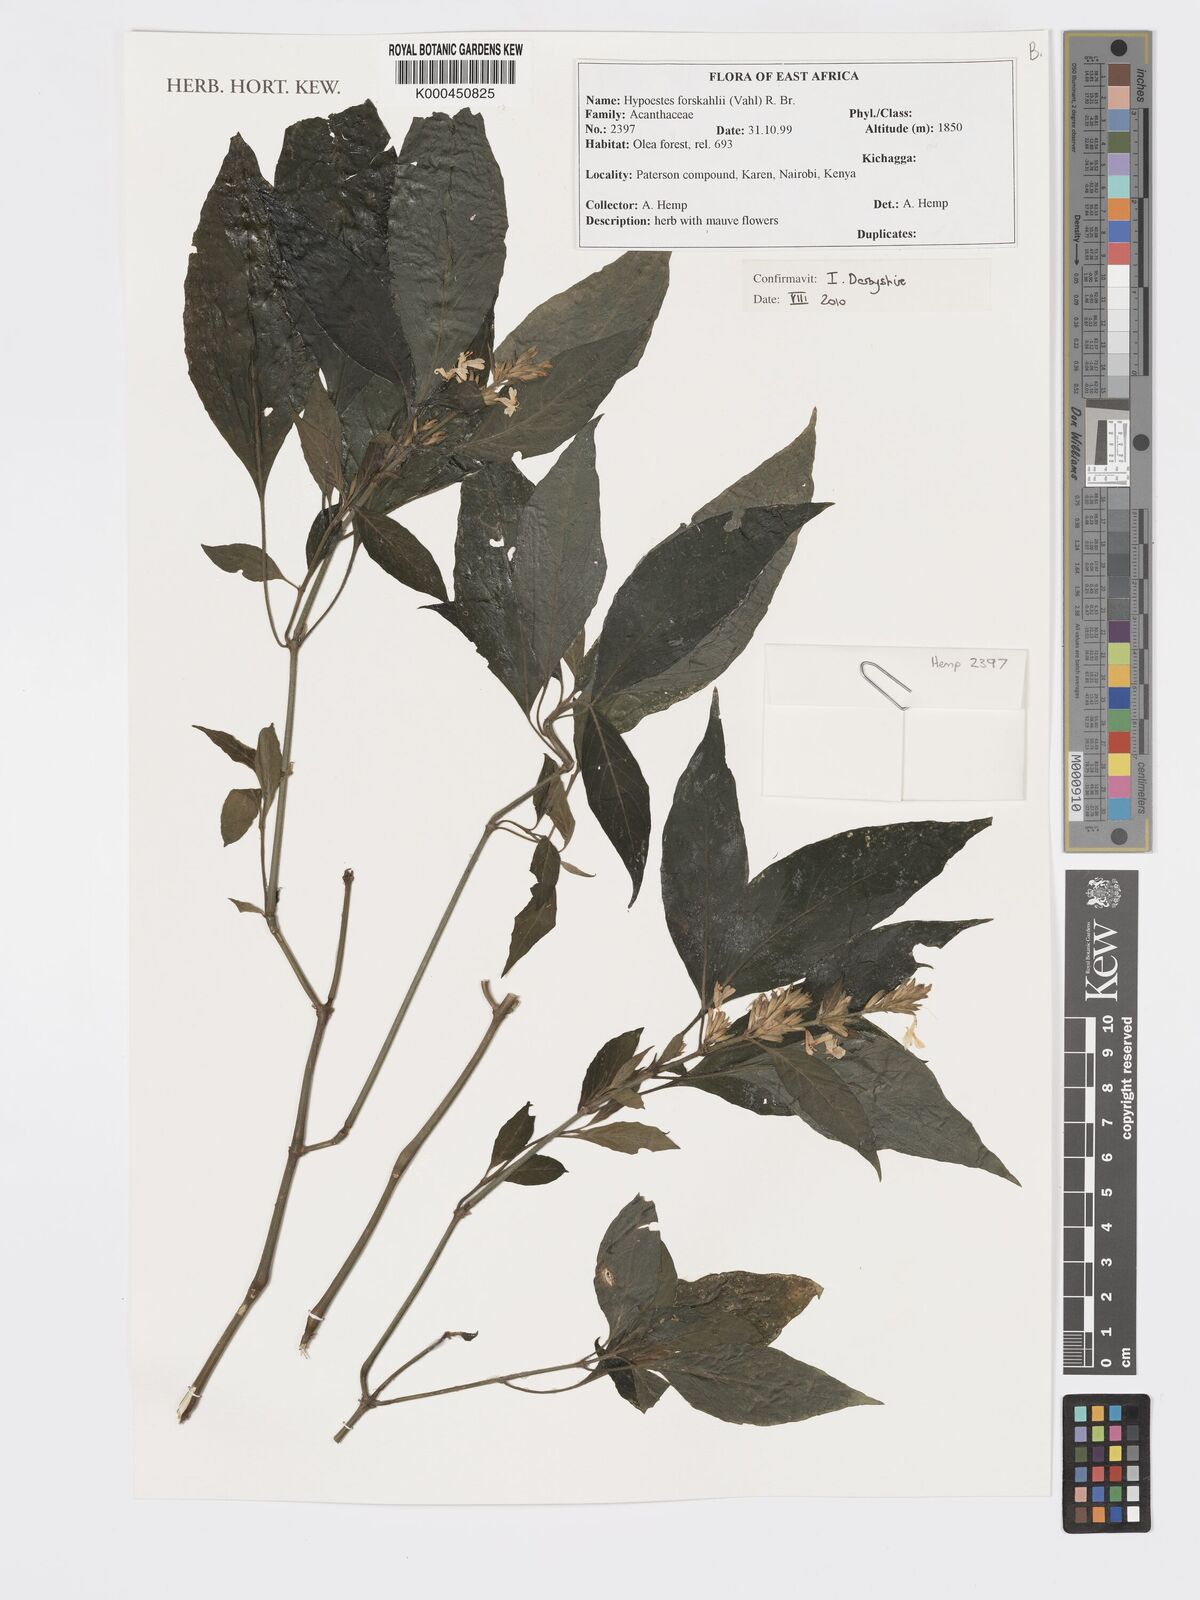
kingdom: Plantae
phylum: Tracheophyta
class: Magnoliopsida
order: Lamiales
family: Acanthaceae
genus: Hypoestes
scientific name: Hypoestes
